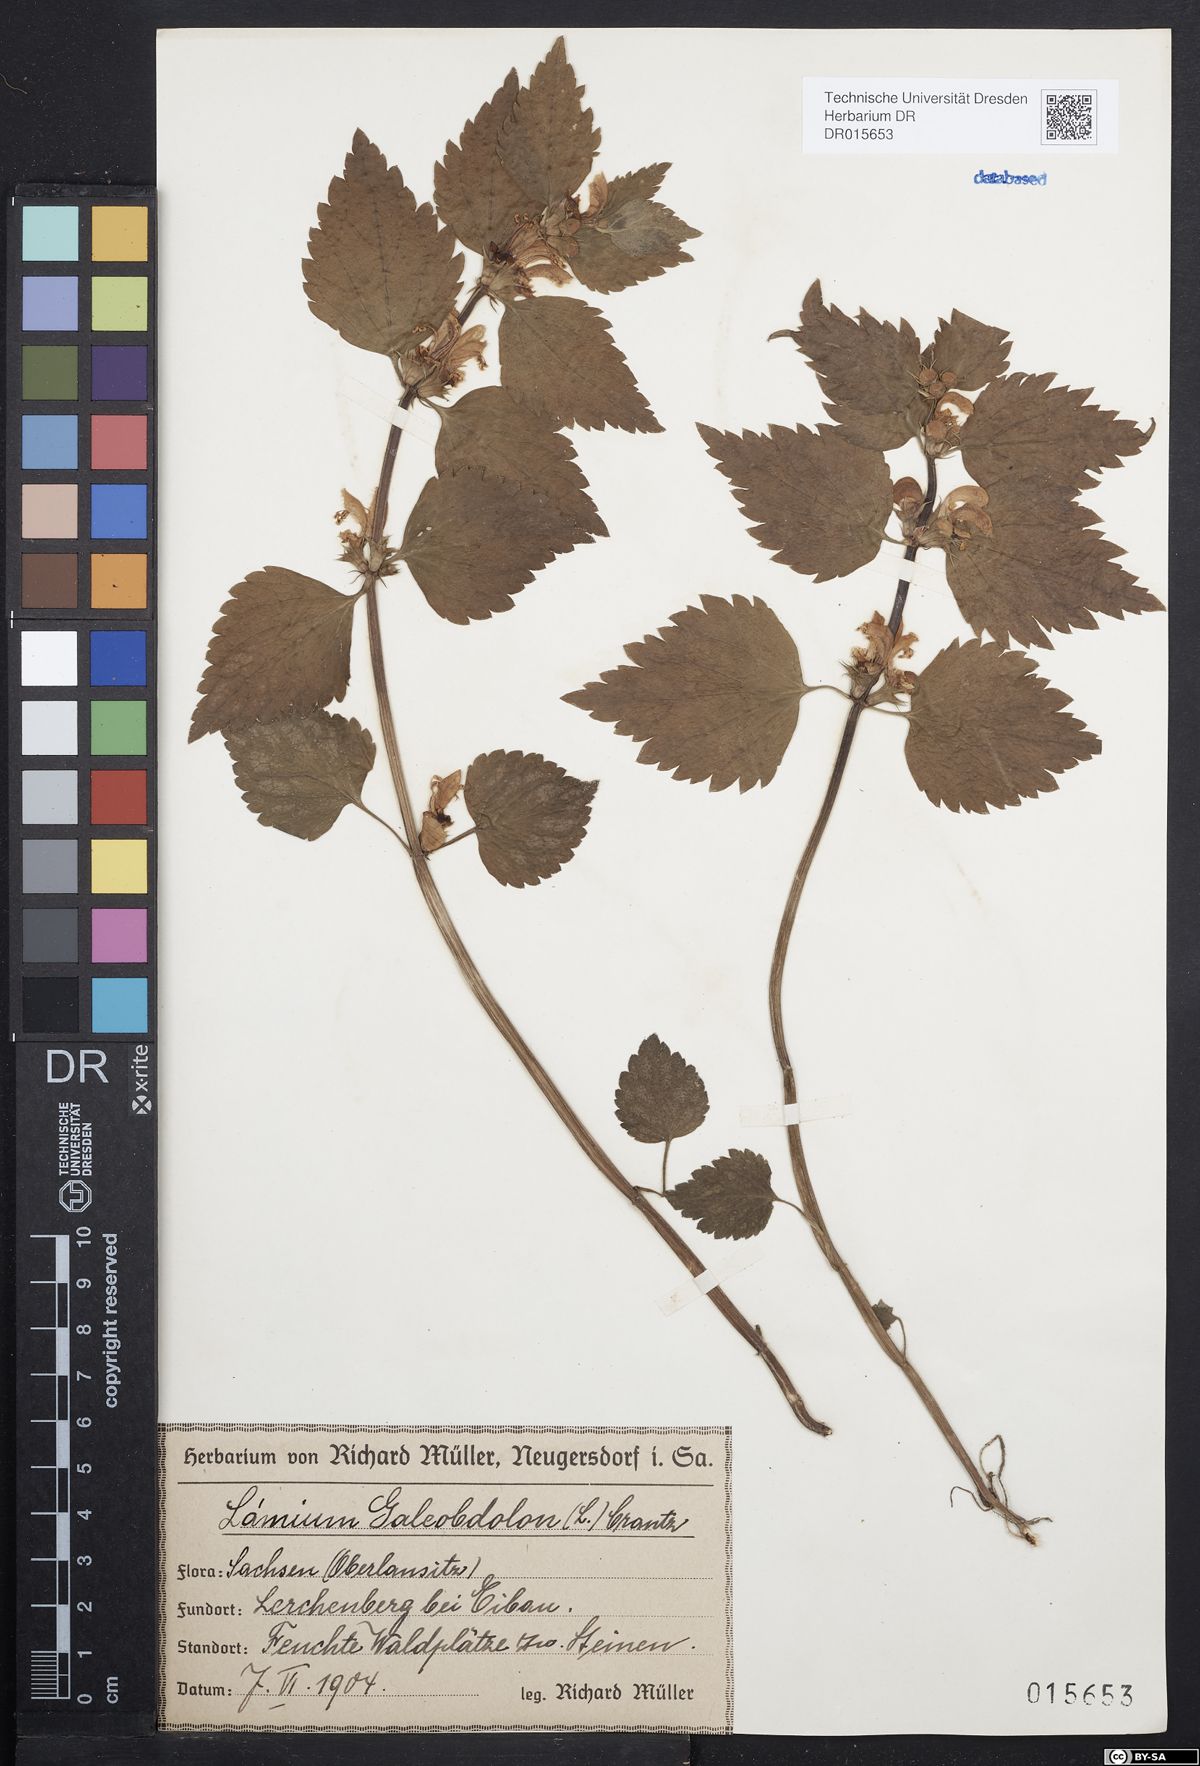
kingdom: Plantae
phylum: Tracheophyta
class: Magnoliopsida
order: Lamiales
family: Lamiaceae
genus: Lamium
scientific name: Lamium galeobdolon
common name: Yellow archangel
